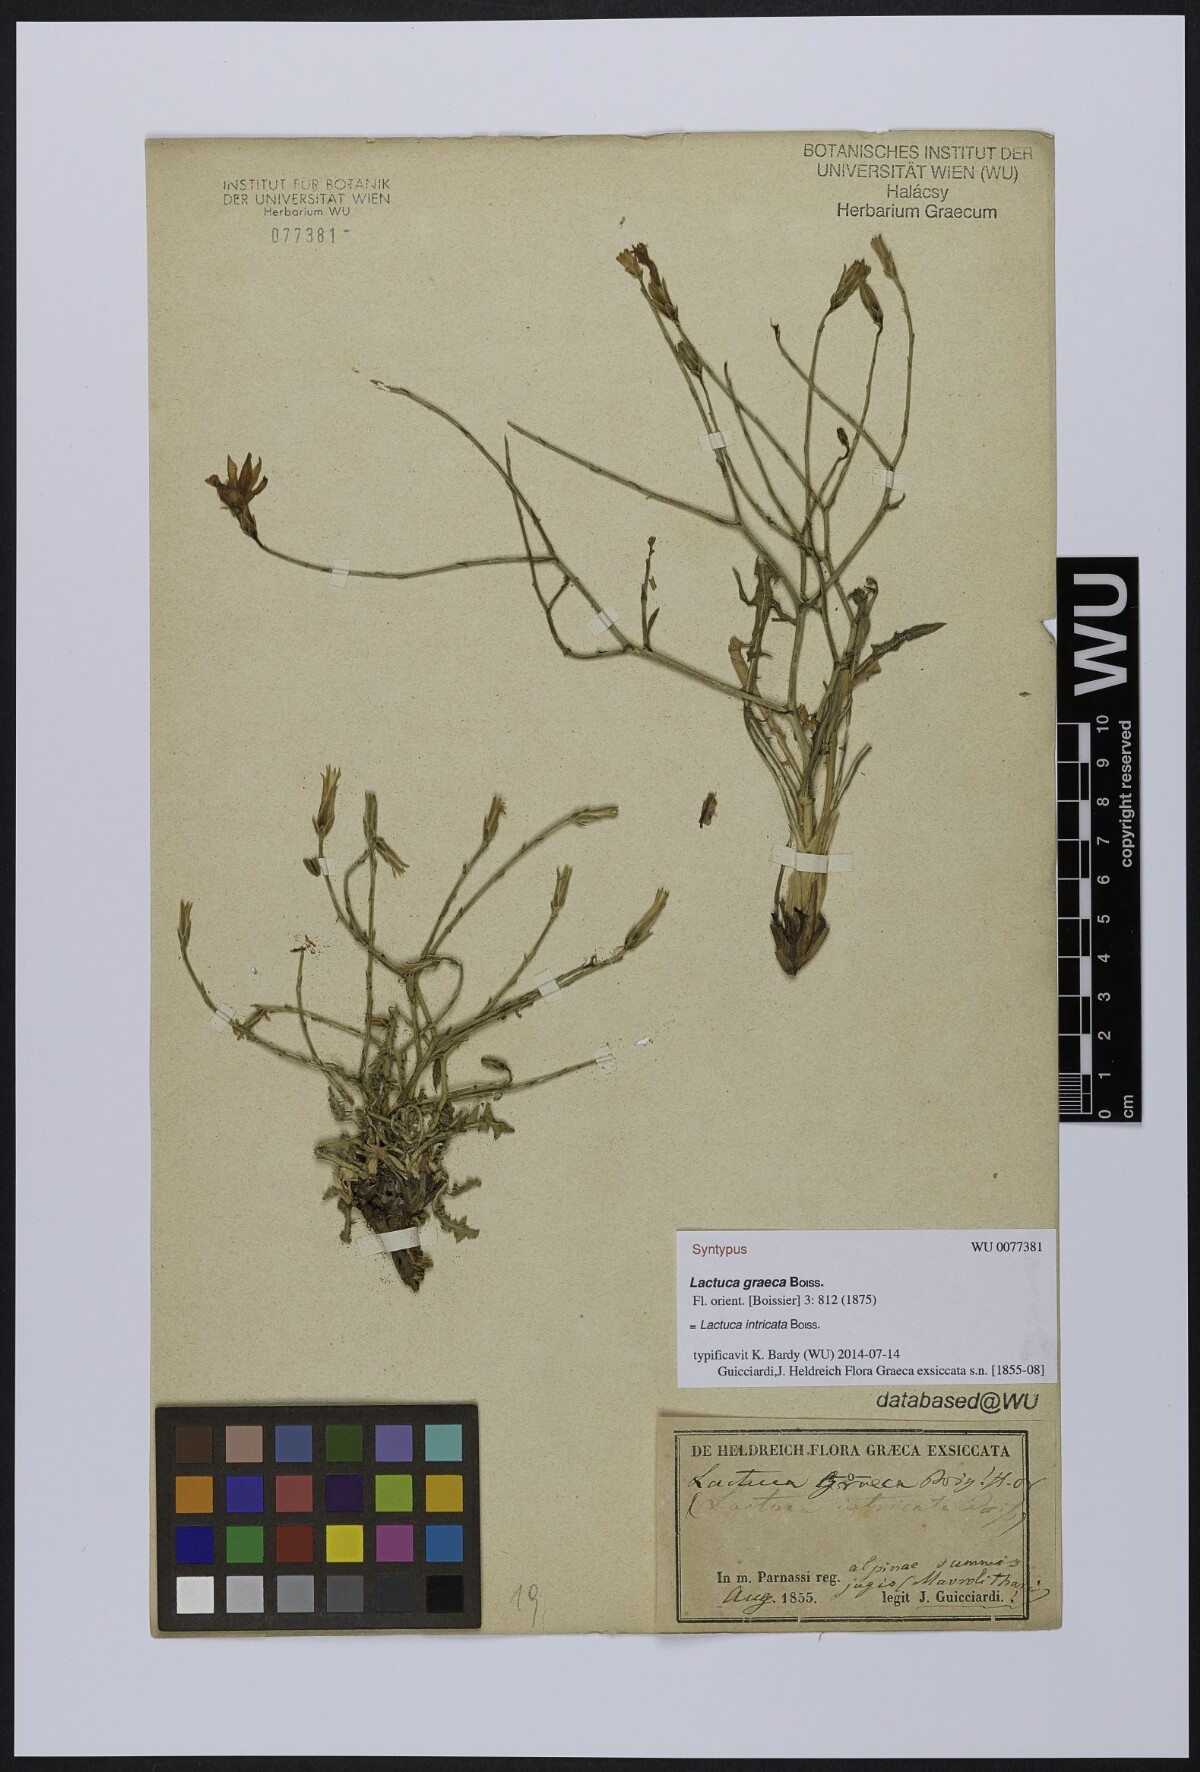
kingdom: Plantae
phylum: Tracheophyta
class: Magnoliopsida
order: Asterales
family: Asteraceae
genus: Lactuca
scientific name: Lactuca intricata
